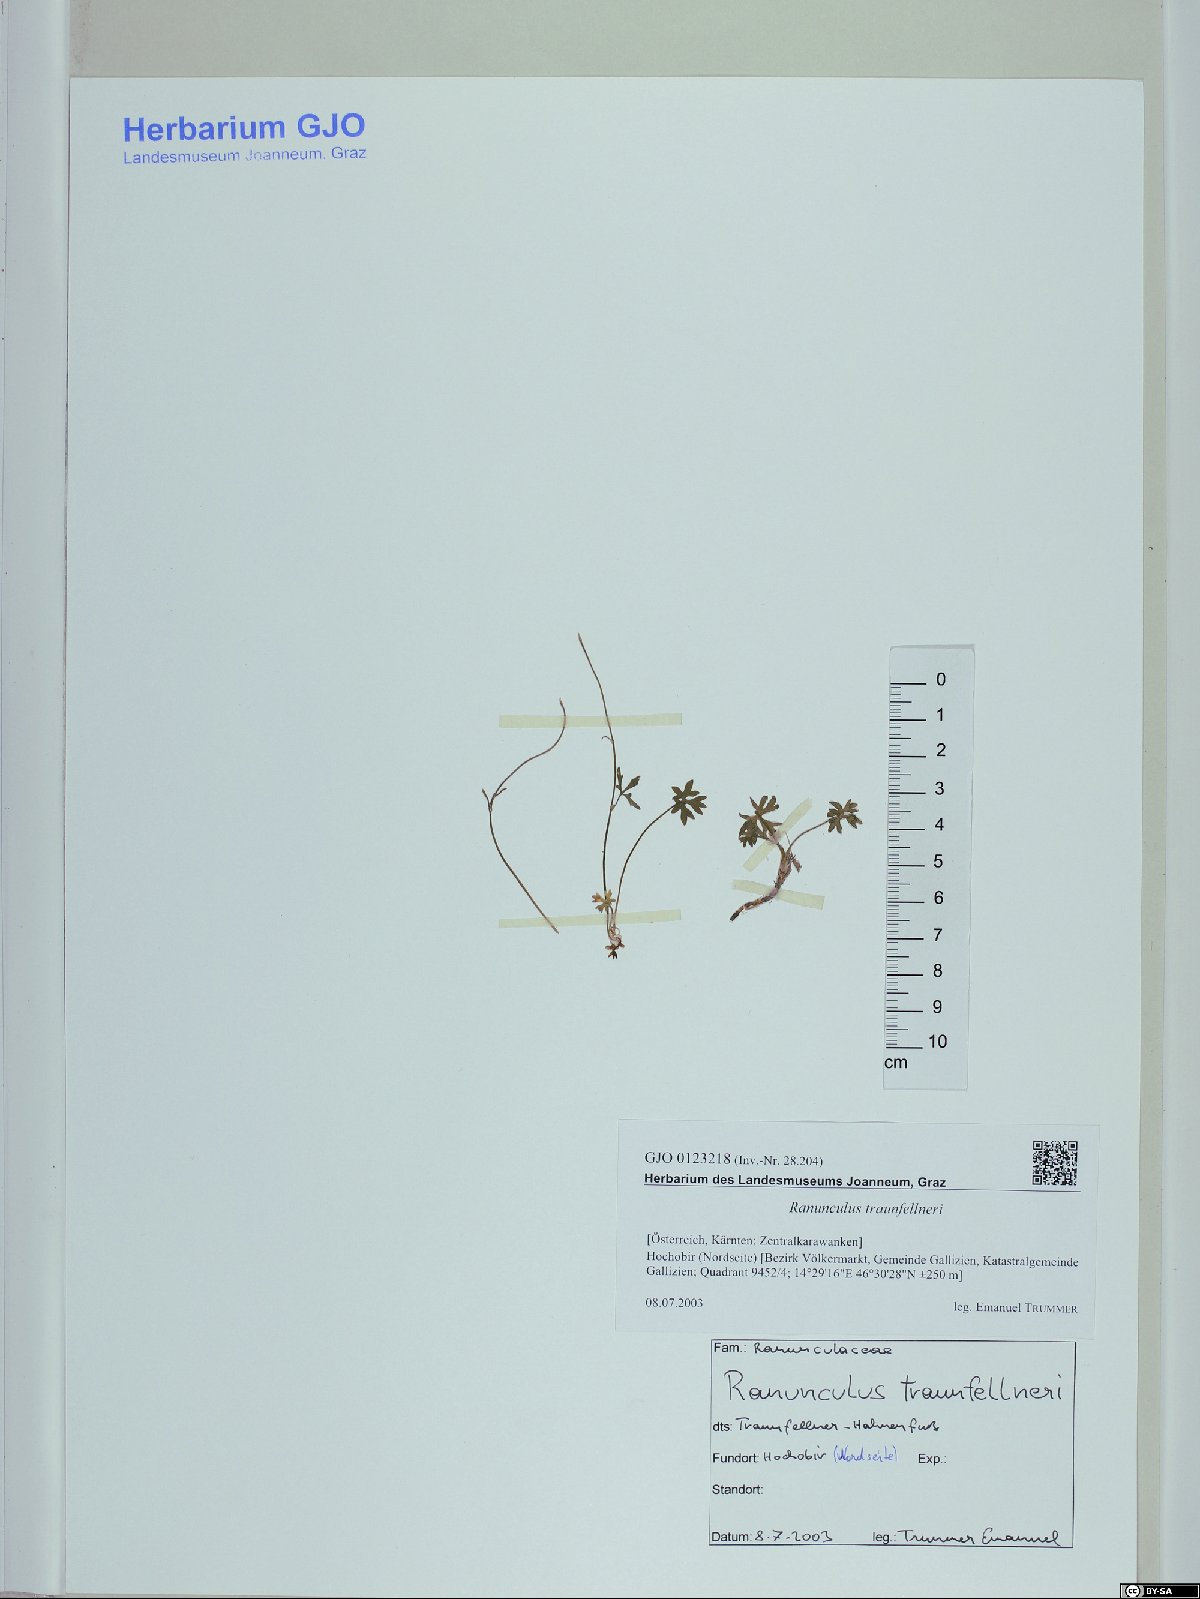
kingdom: Plantae
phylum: Tracheophyta
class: Magnoliopsida
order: Ranunculales
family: Ranunculaceae
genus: Ranunculus
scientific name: Ranunculus traunfellneri
